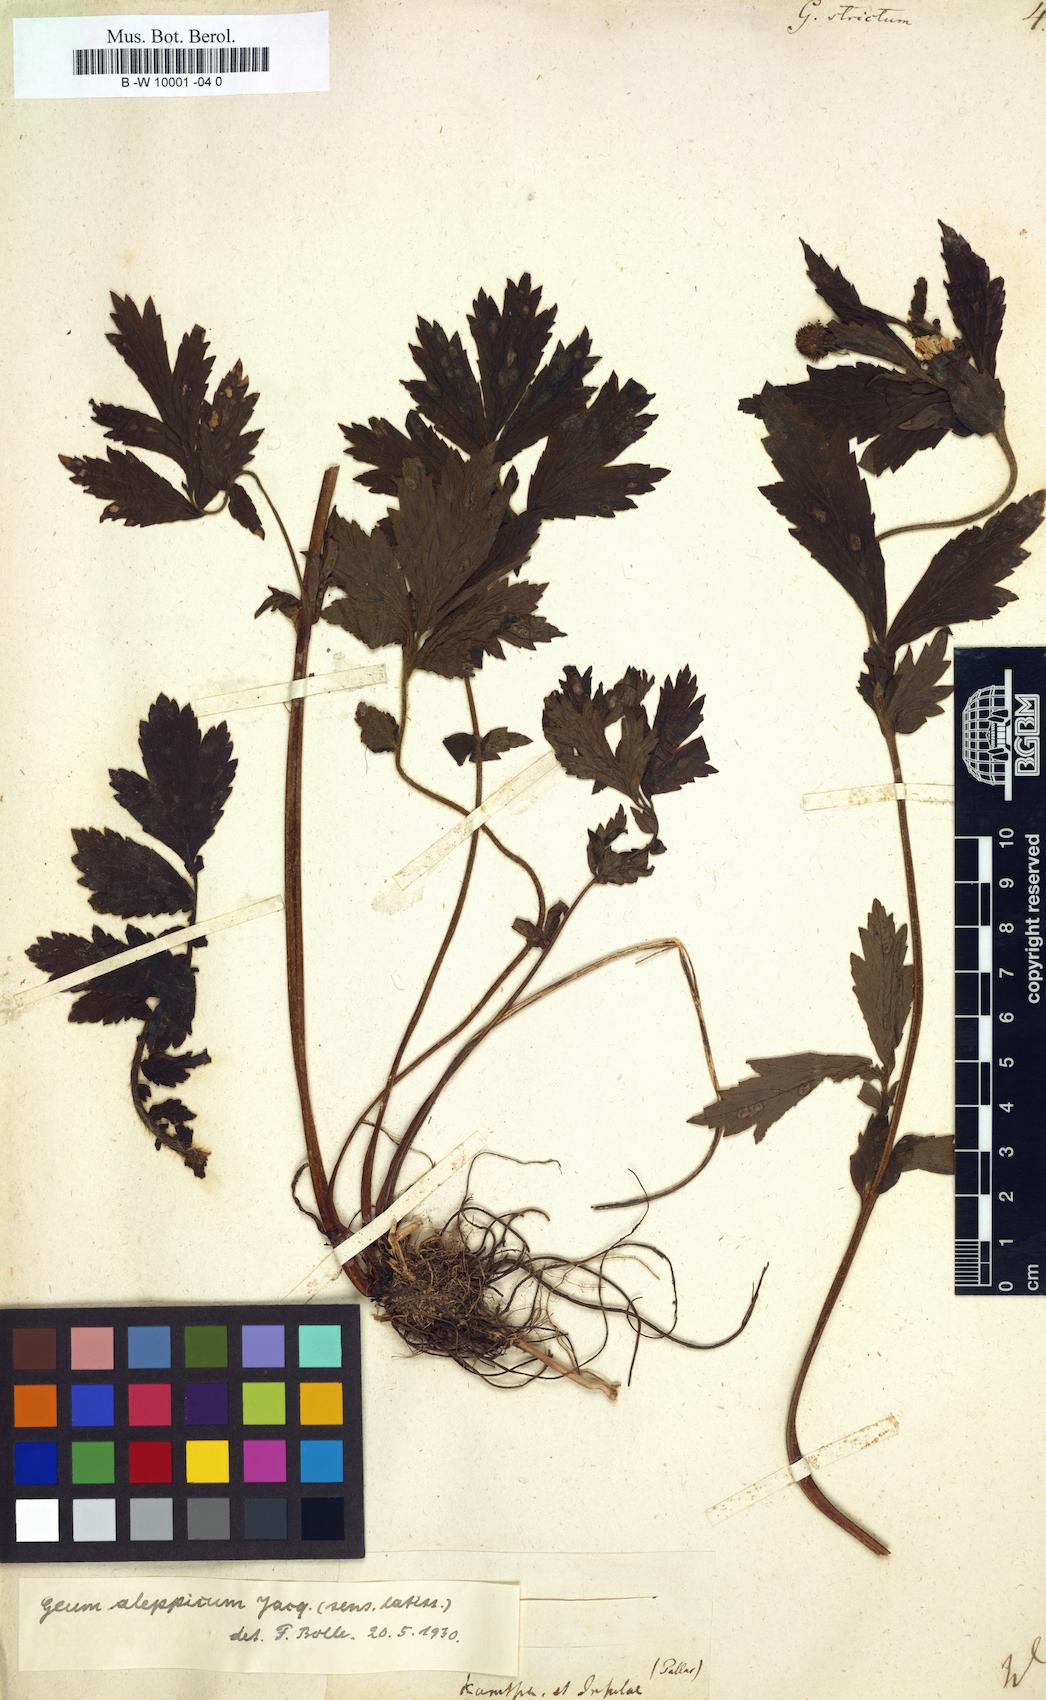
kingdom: Plantae
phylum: Tracheophyta
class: Magnoliopsida
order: Rosales
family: Rosaceae
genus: Geum
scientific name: Geum aleppicum
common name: Yellow avens
